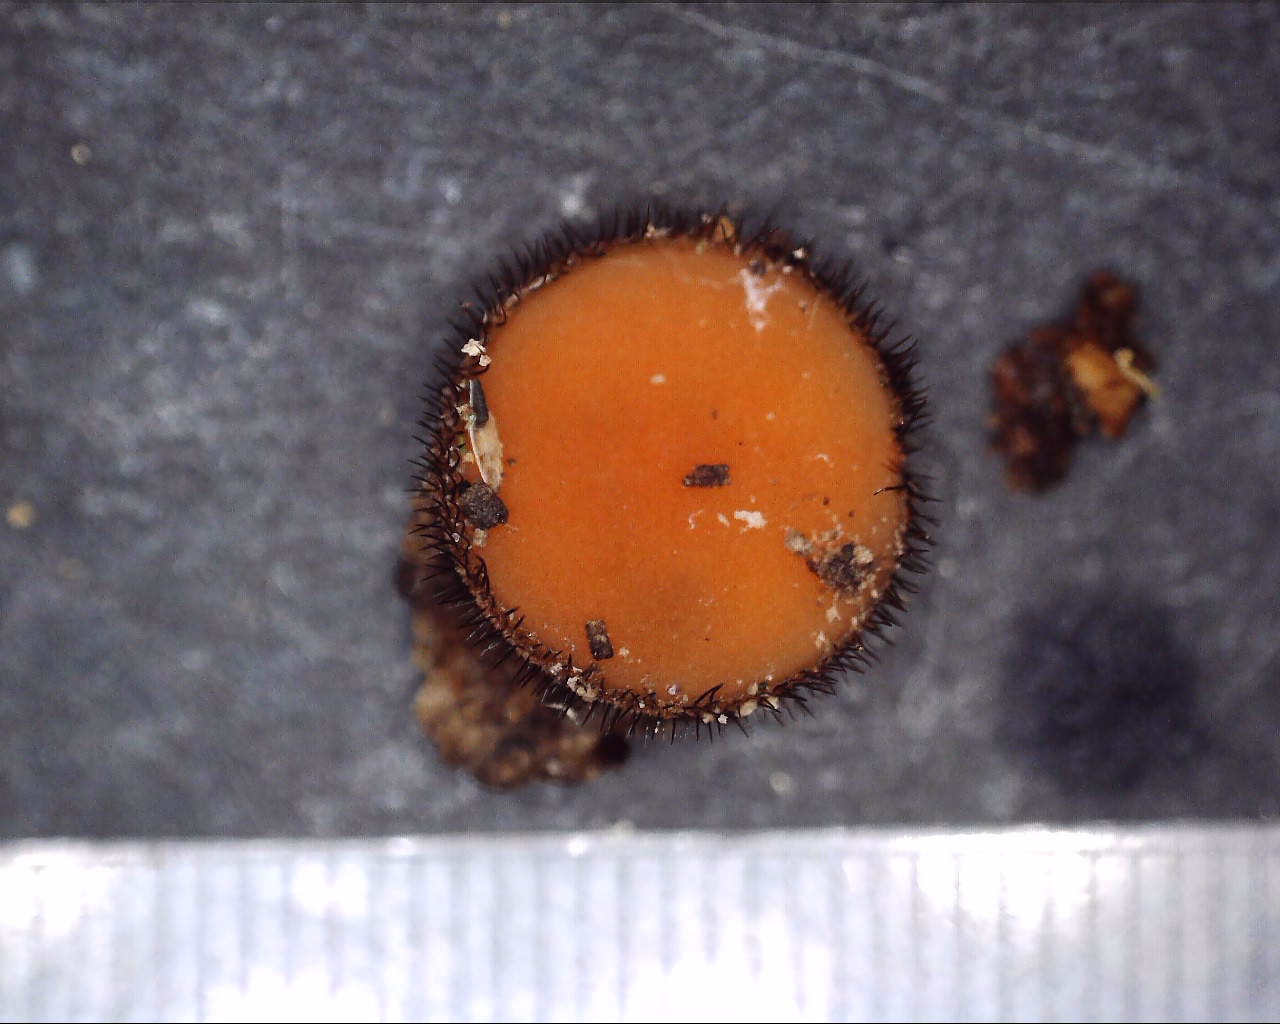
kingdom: Fungi
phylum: Ascomycota
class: Pezizomycetes
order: Pezizales
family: Pyronemataceae
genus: Scutellinia
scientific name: Scutellinia
